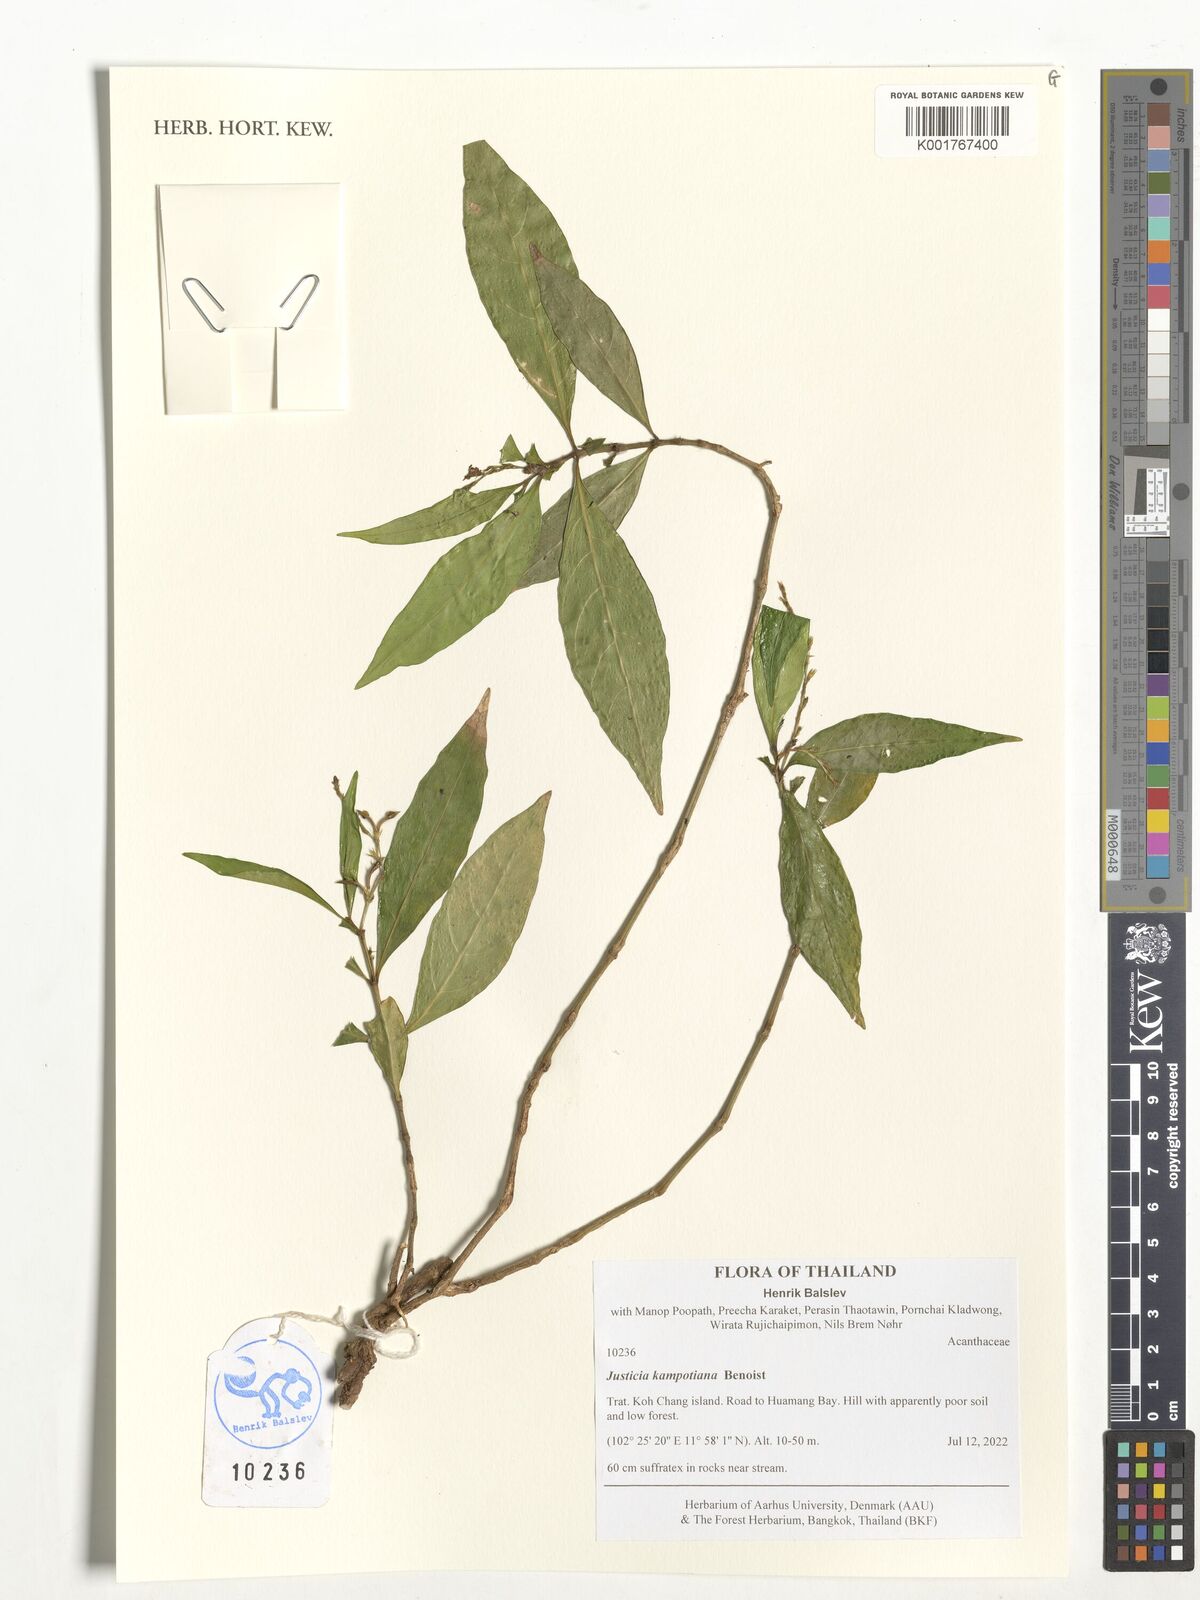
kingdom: Plantae
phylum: Tracheophyta
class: Magnoliopsida
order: Lamiales
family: Acanthaceae
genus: Justicia
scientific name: Justicia kampotiana
